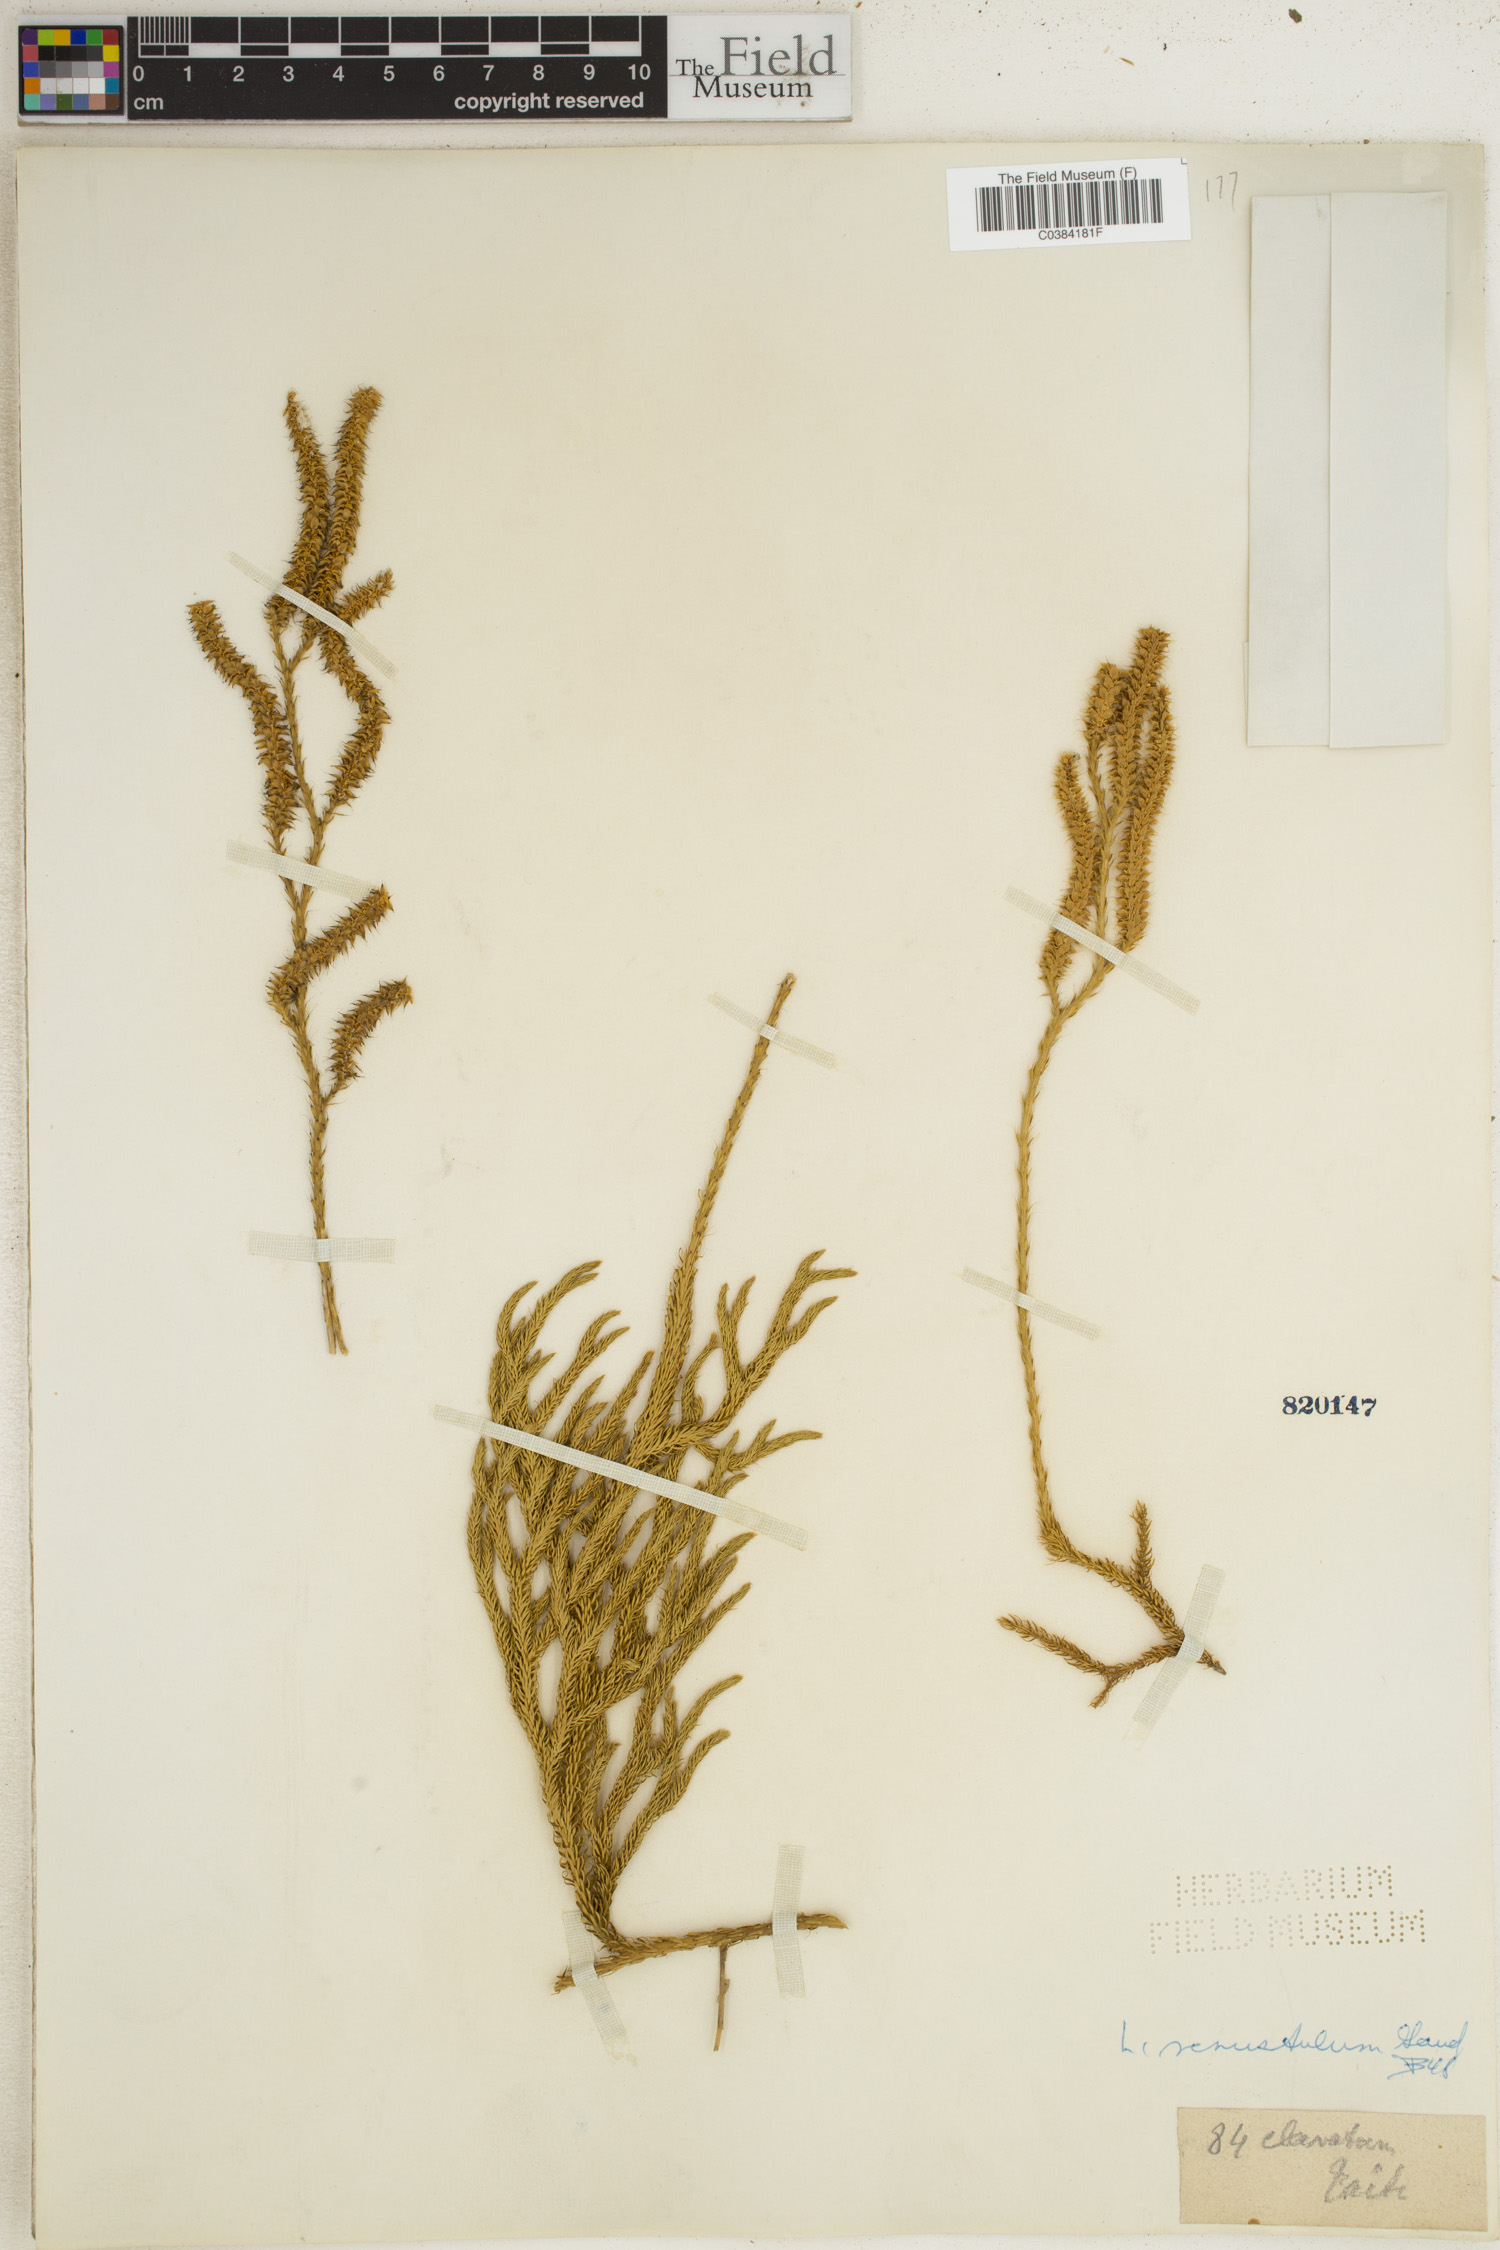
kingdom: Plantae
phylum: Tracheophyta
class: Lycopodiopsida
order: Lycopodiales
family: Lycopodiaceae
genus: Lycopodium
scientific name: Lycopodium
